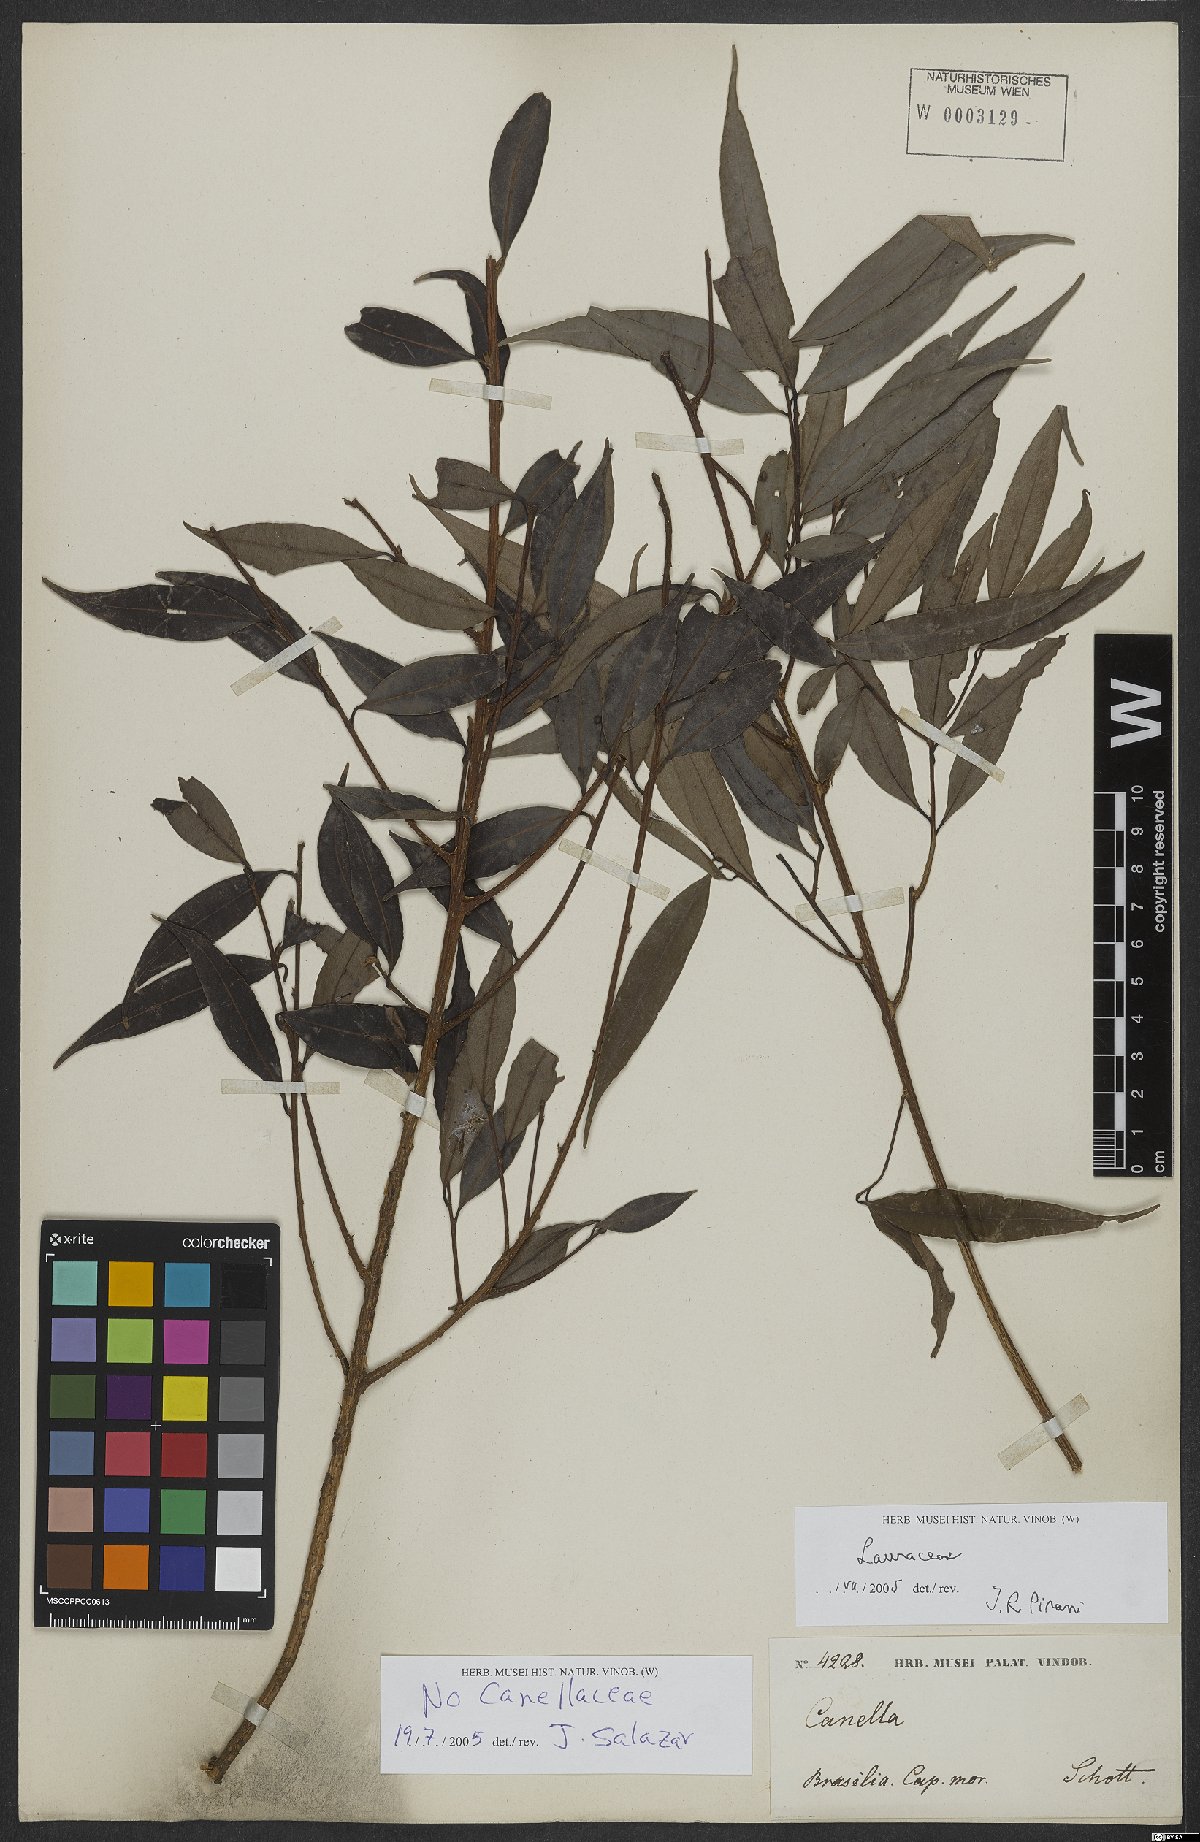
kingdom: Plantae
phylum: Tracheophyta
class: Magnoliopsida
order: Laurales
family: Lauraceae
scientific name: Lauraceae
